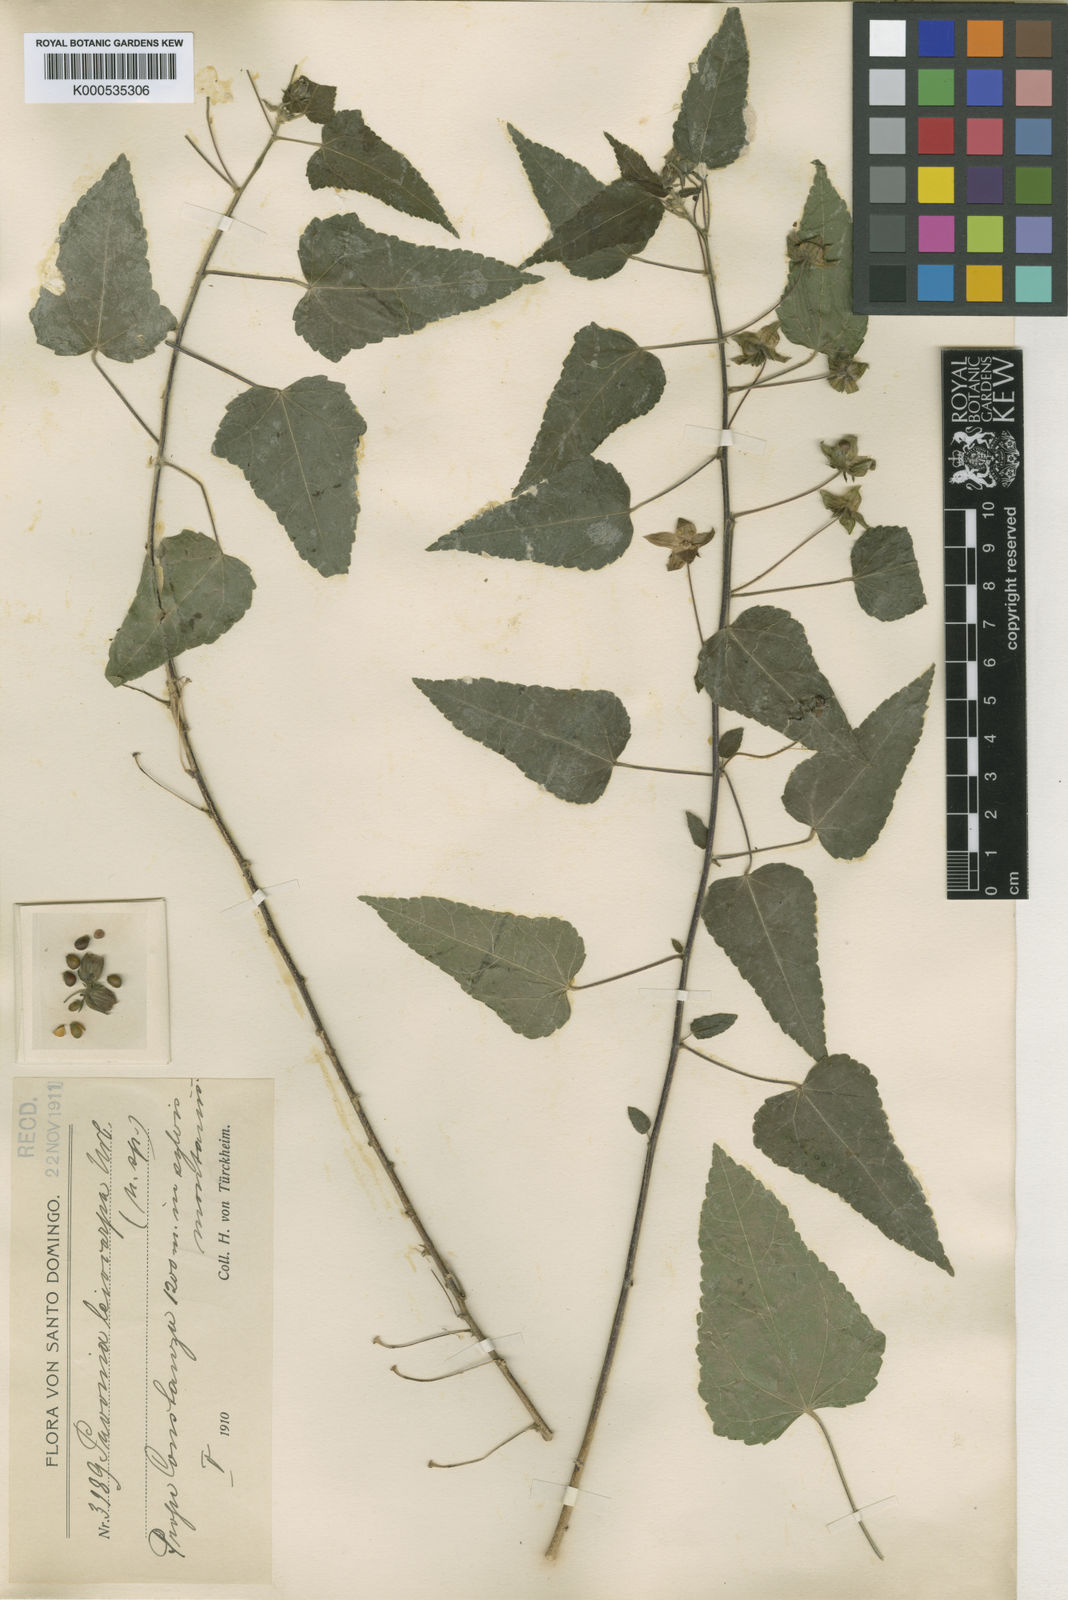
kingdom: Plantae
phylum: Tracheophyta
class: Magnoliopsida
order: Malvales
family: Malvaceae
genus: Pavonia
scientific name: Pavonia leiocarpa
